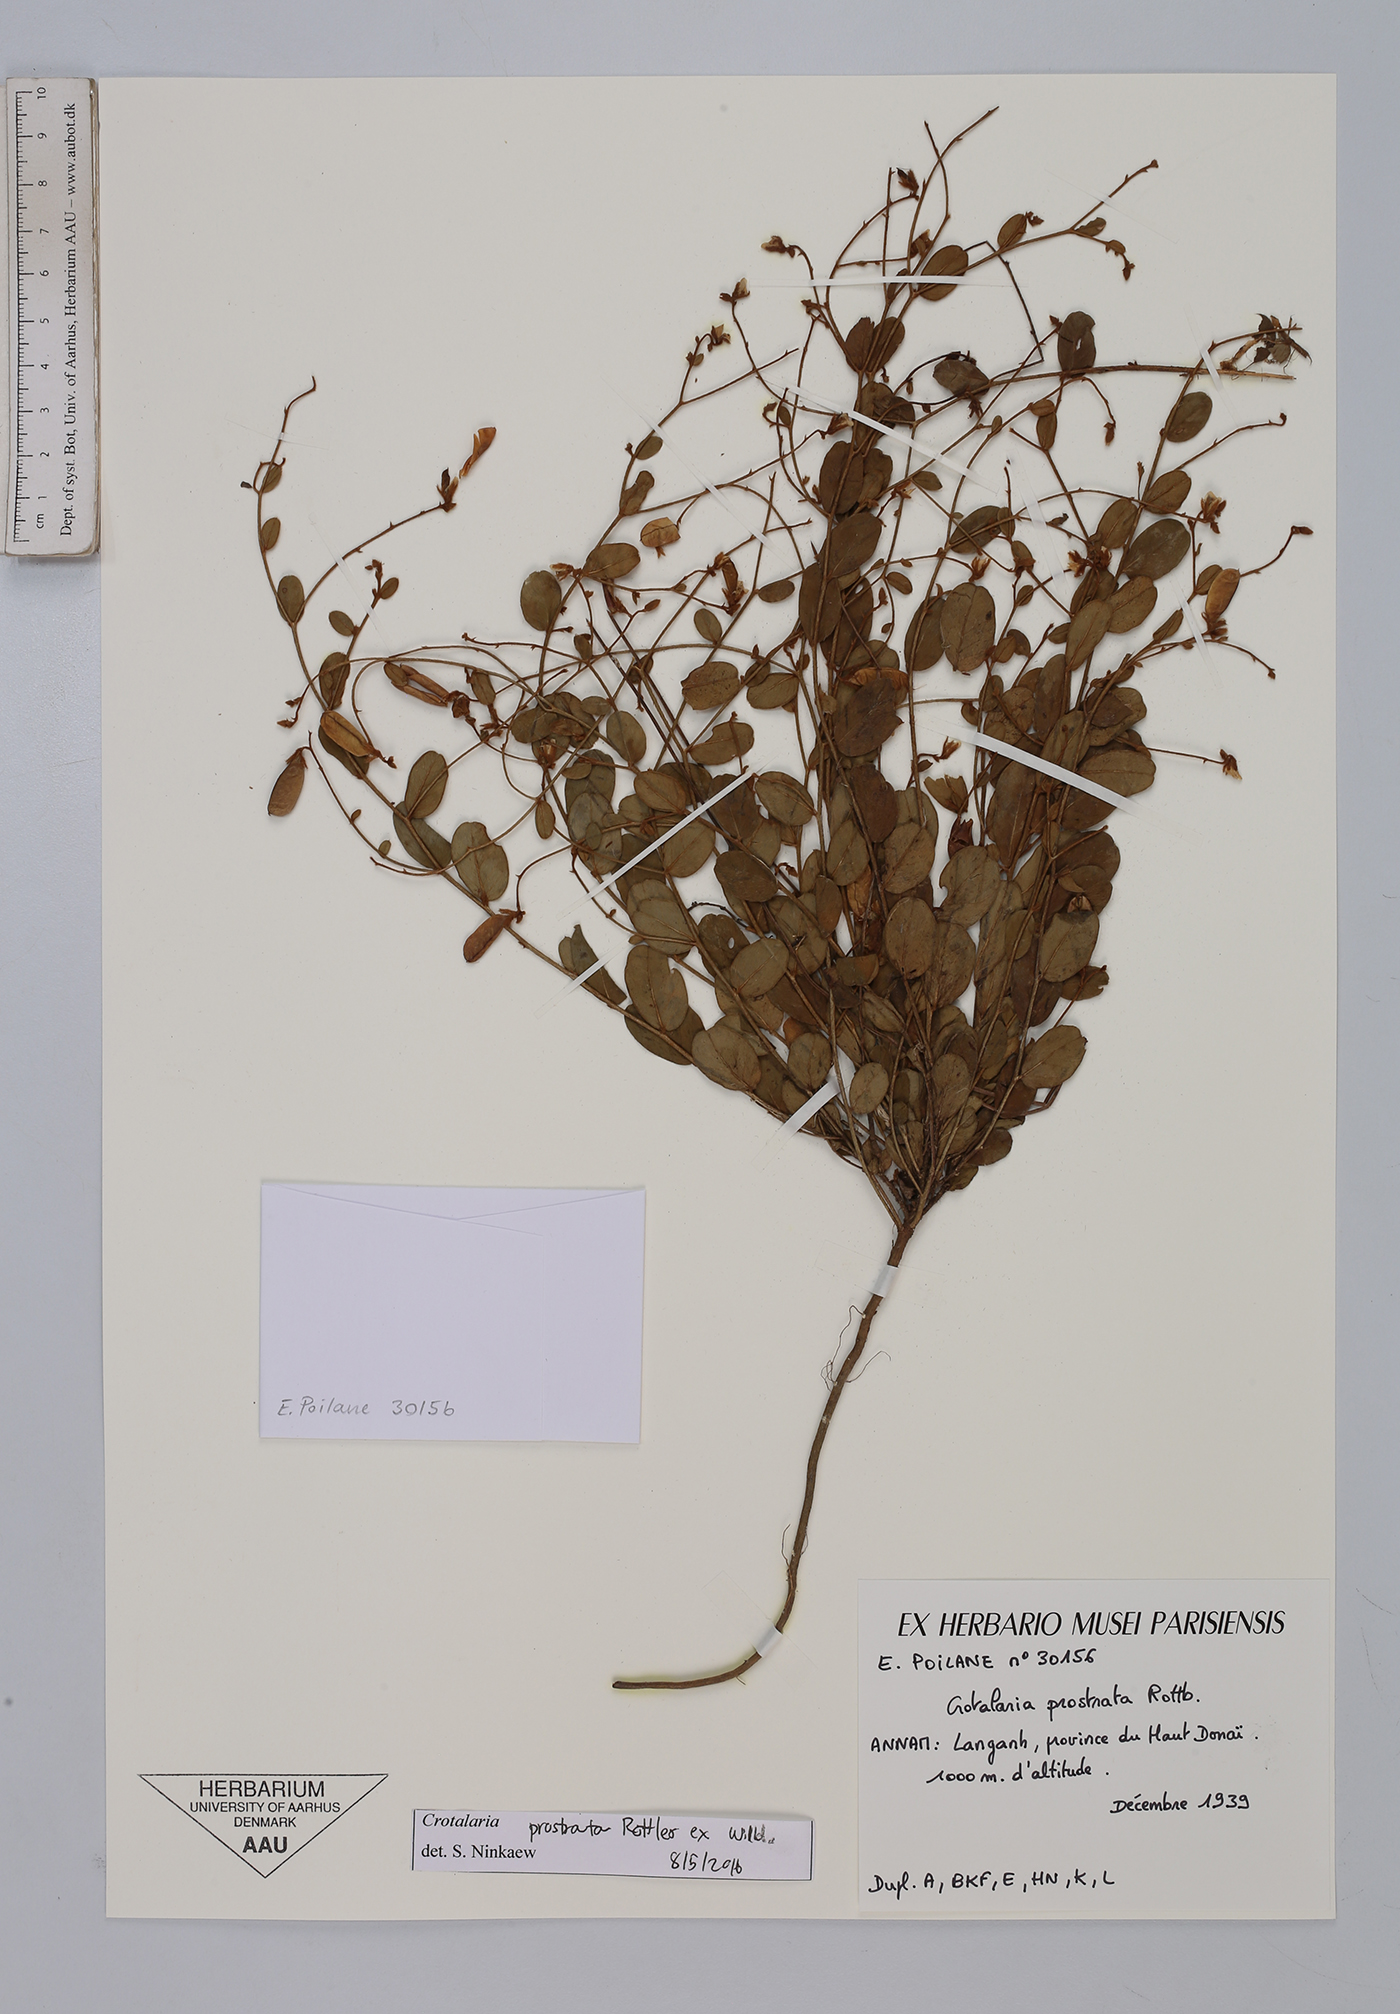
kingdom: Plantae
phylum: Tracheophyta
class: Magnoliopsida
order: Fabales
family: Fabaceae
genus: Crotalaria
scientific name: Crotalaria prostrata
